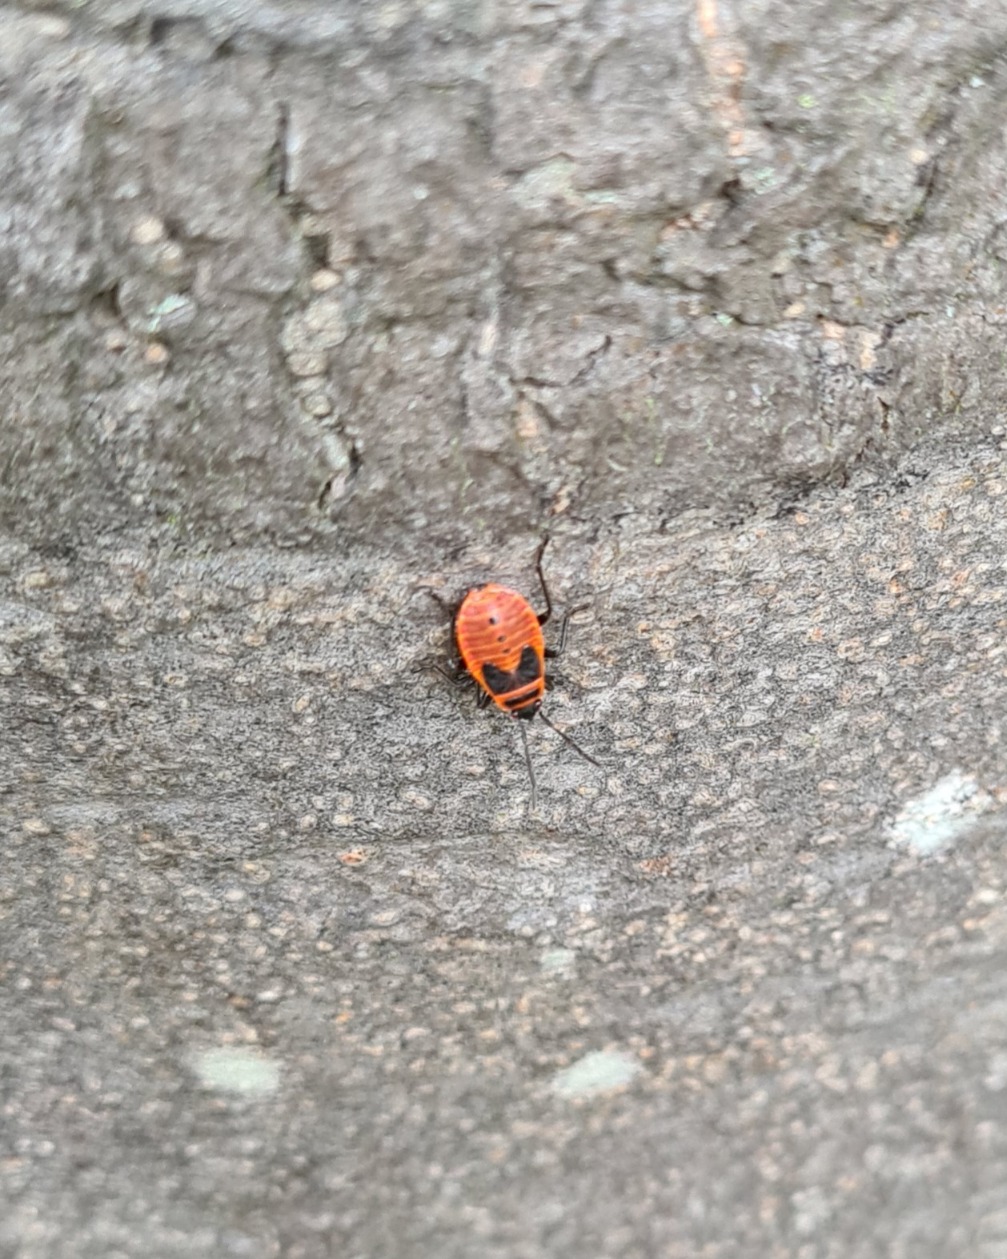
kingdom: Animalia
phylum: Arthropoda
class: Insecta
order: Hemiptera
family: Pyrrhocoridae
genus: Pyrrhocoris
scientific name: Pyrrhocoris apterus
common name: Ildtæge
